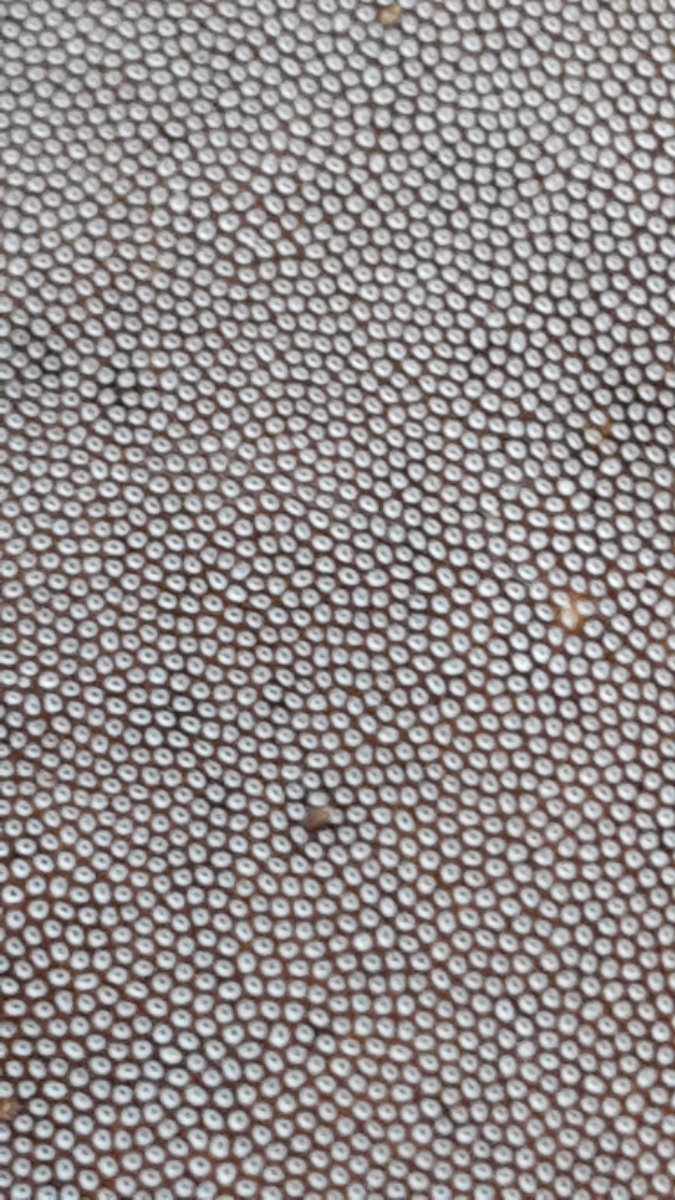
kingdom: Fungi
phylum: Basidiomycota
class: Agaricomycetes
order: Polyporales
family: Polyporaceae
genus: Fomes
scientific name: Fomes fomentarius
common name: tøndersvamp
